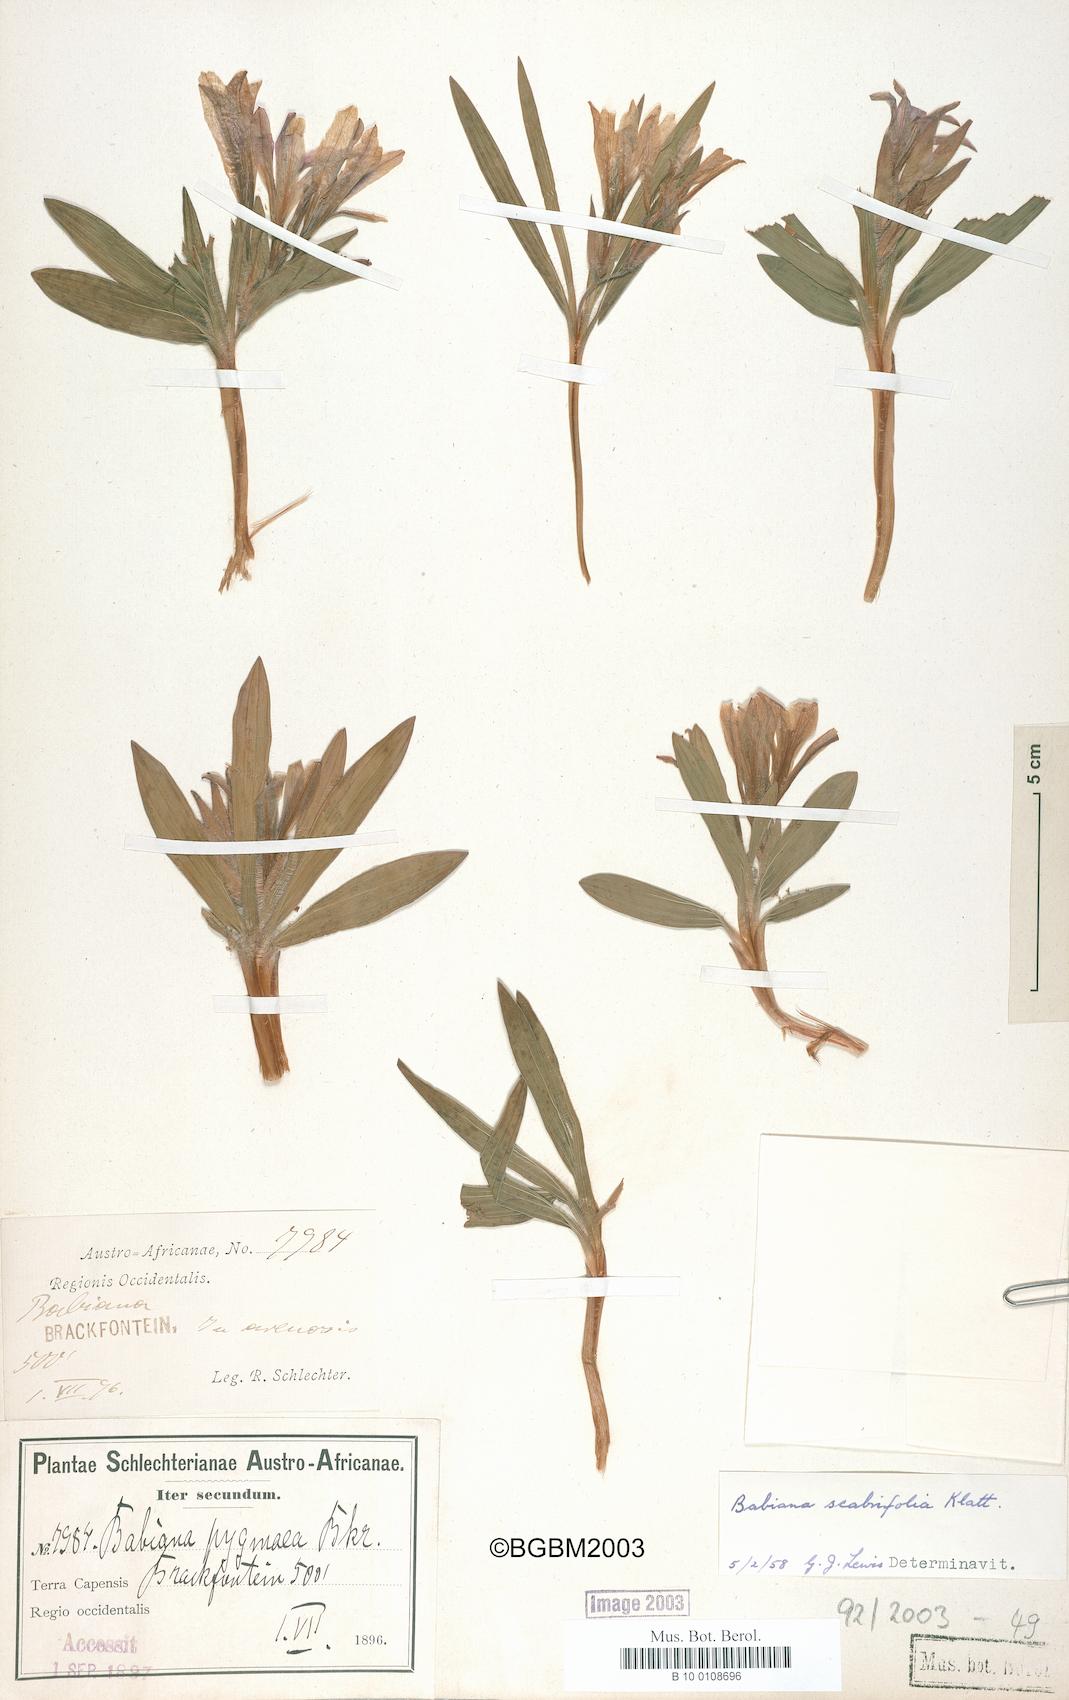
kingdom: Plantae
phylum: Tracheophyta
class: Liliopsida
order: Asparagales
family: Iridaceae
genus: Babiana
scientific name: Babiana scabrifolia
